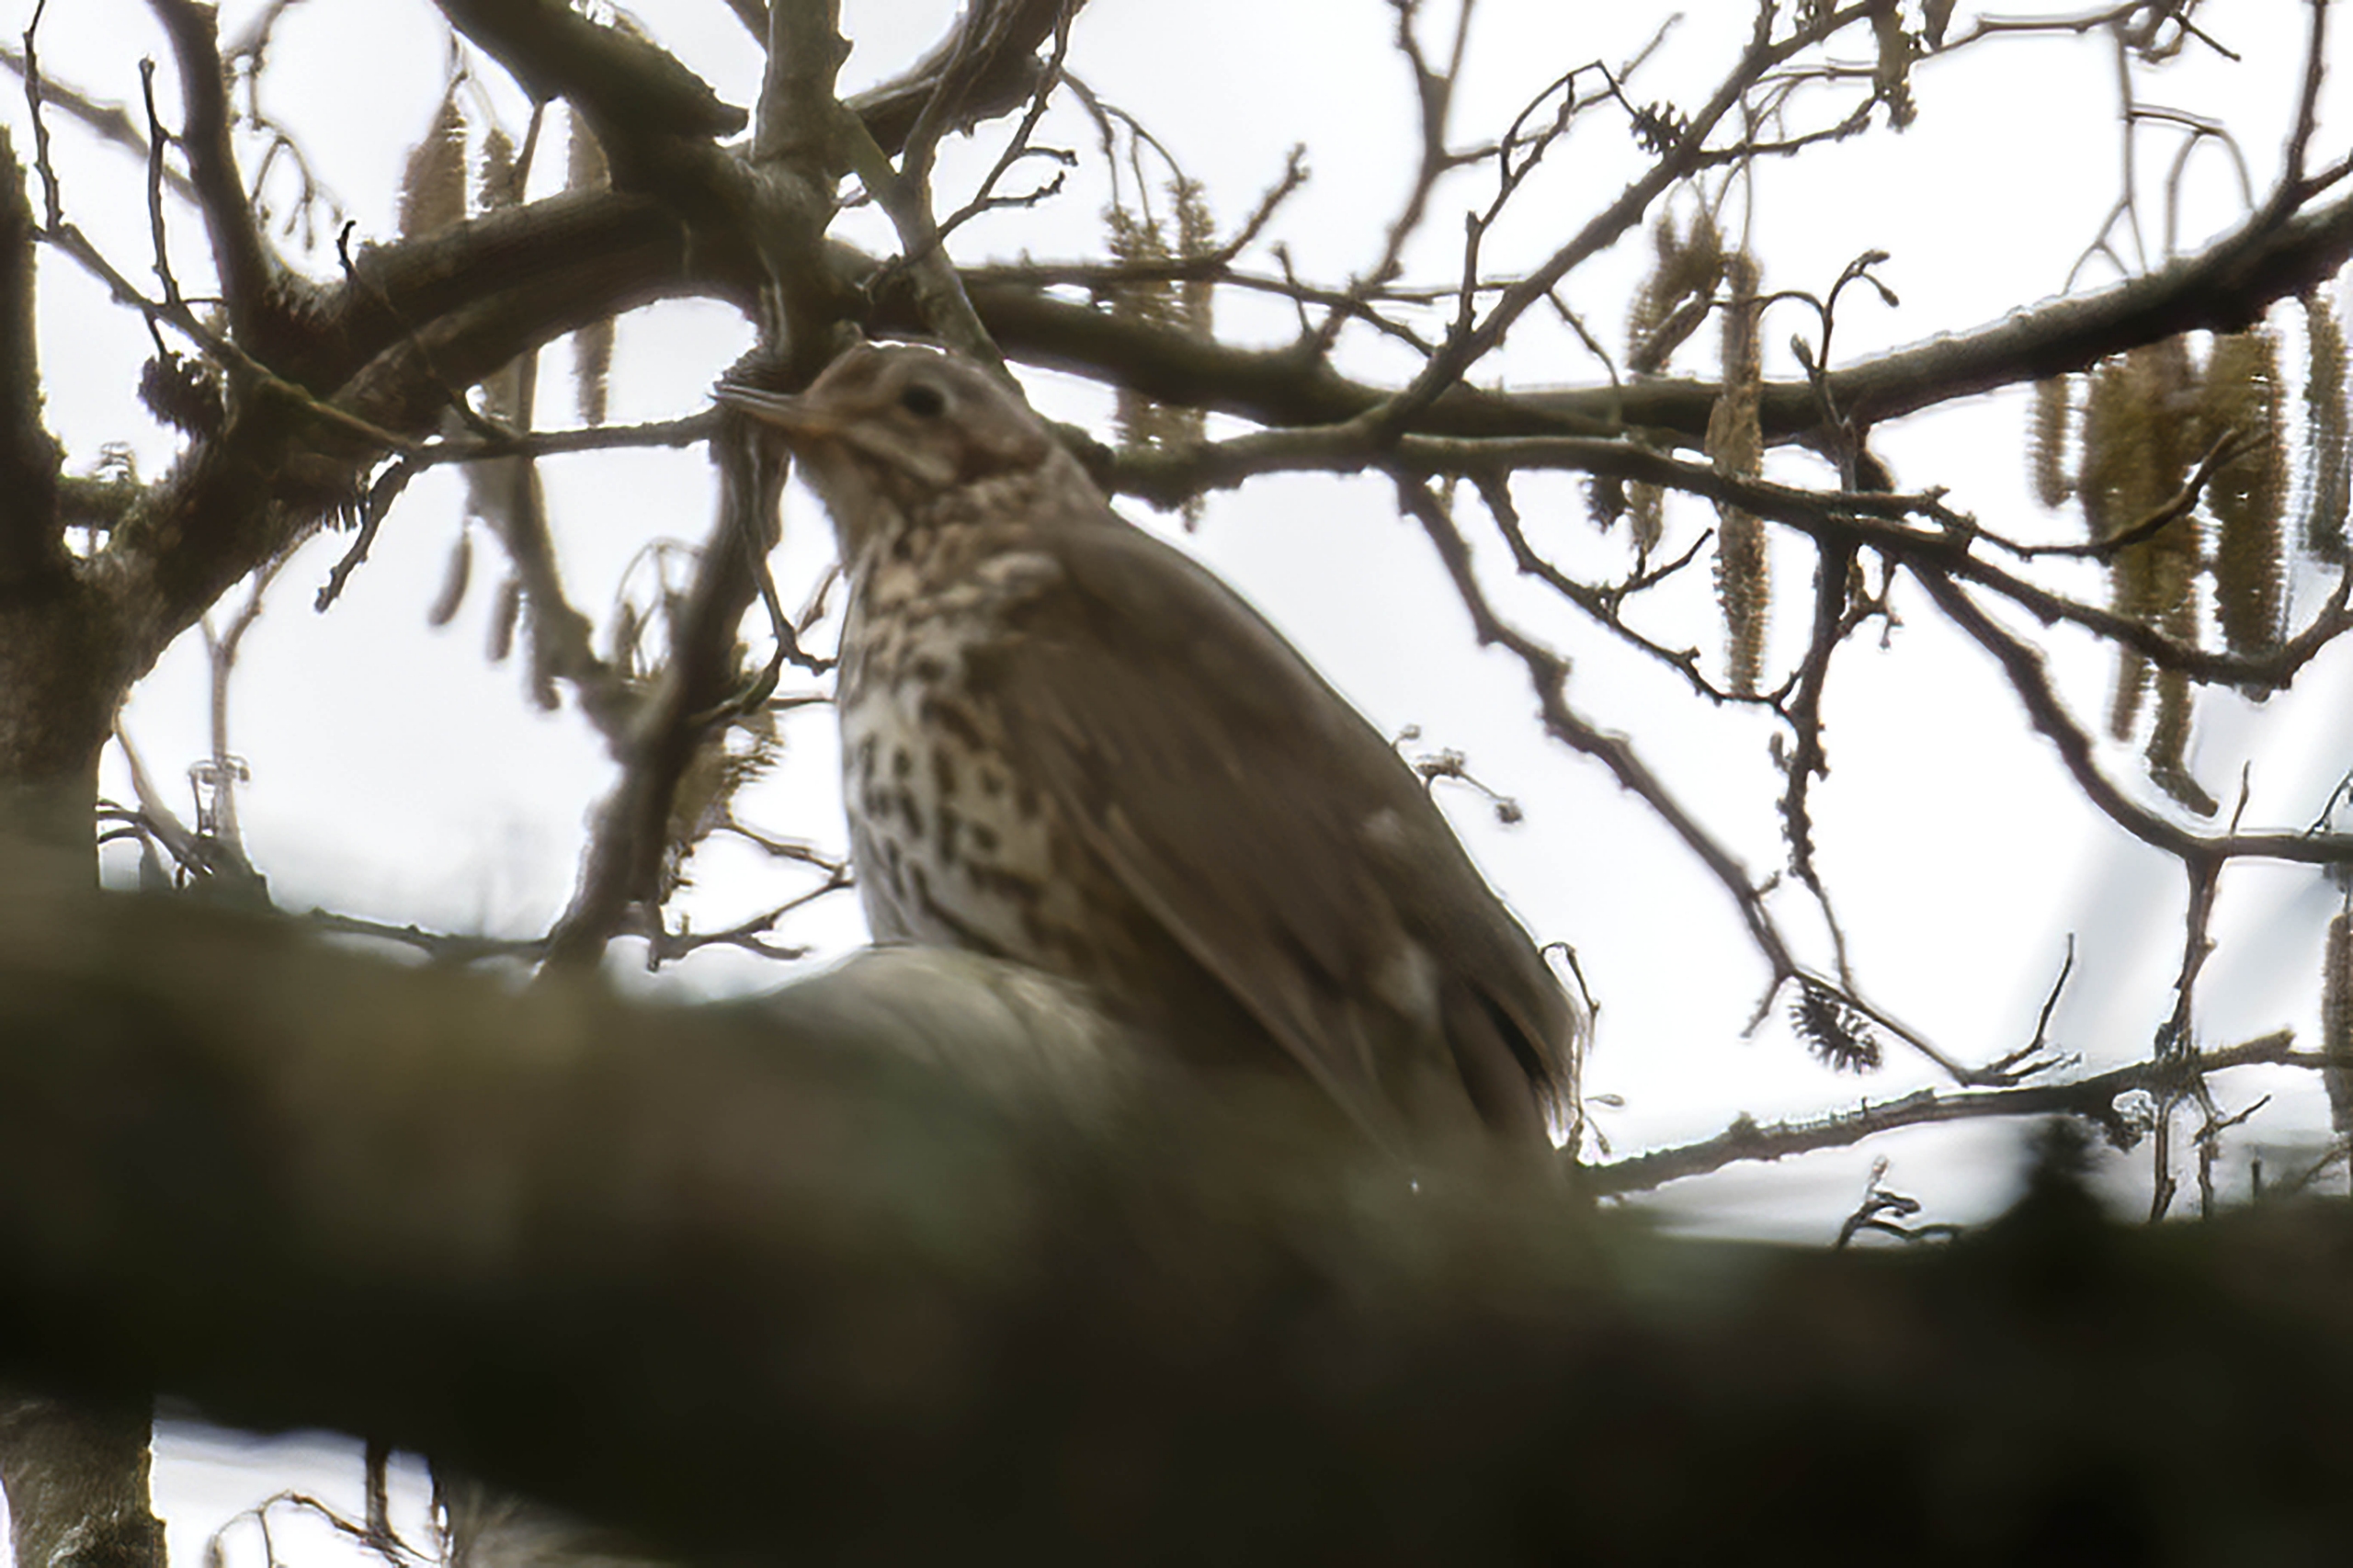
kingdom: Animalia
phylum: Chordata
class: Aves
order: Passeriformes
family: Turdidae
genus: Turdus
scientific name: Turdus philomelos
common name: Sangdrossel
